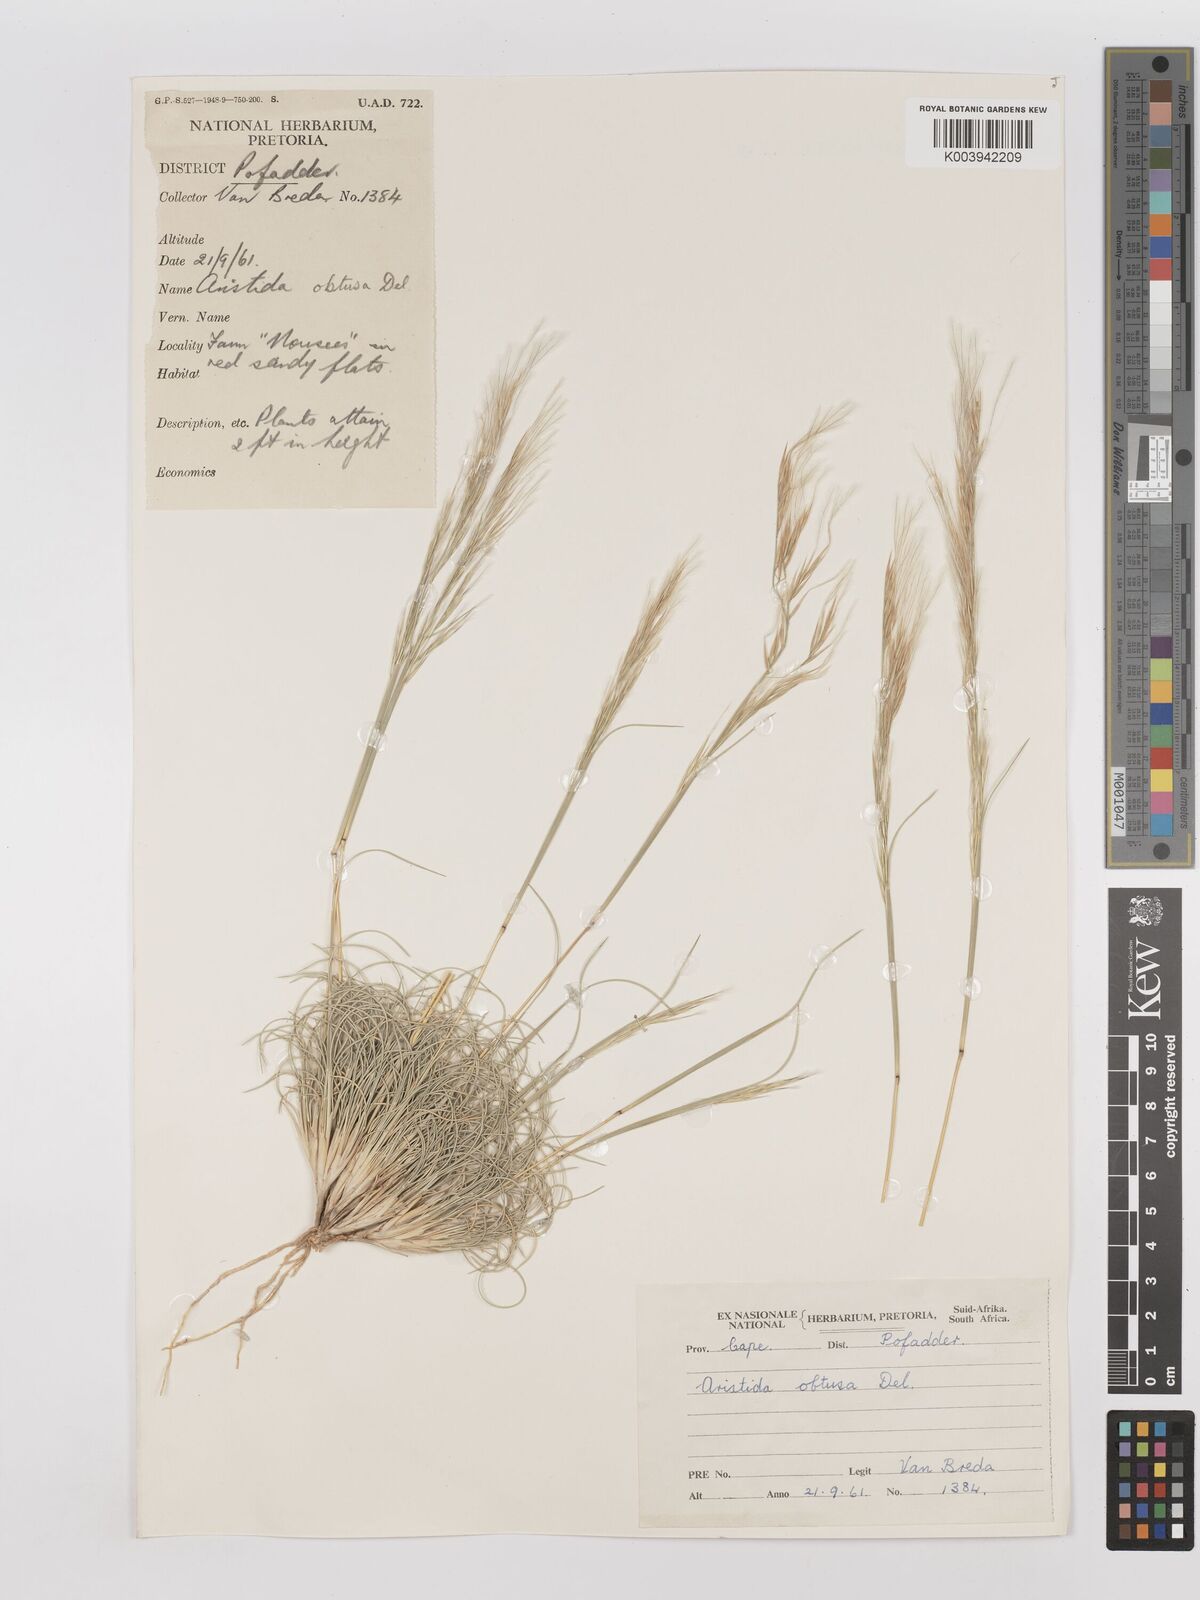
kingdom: Plantae
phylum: Tracheophyta
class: Liliopsida
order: Poales
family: Poaceae
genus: Stipagrostis
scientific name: Stipagrostis obtusa
